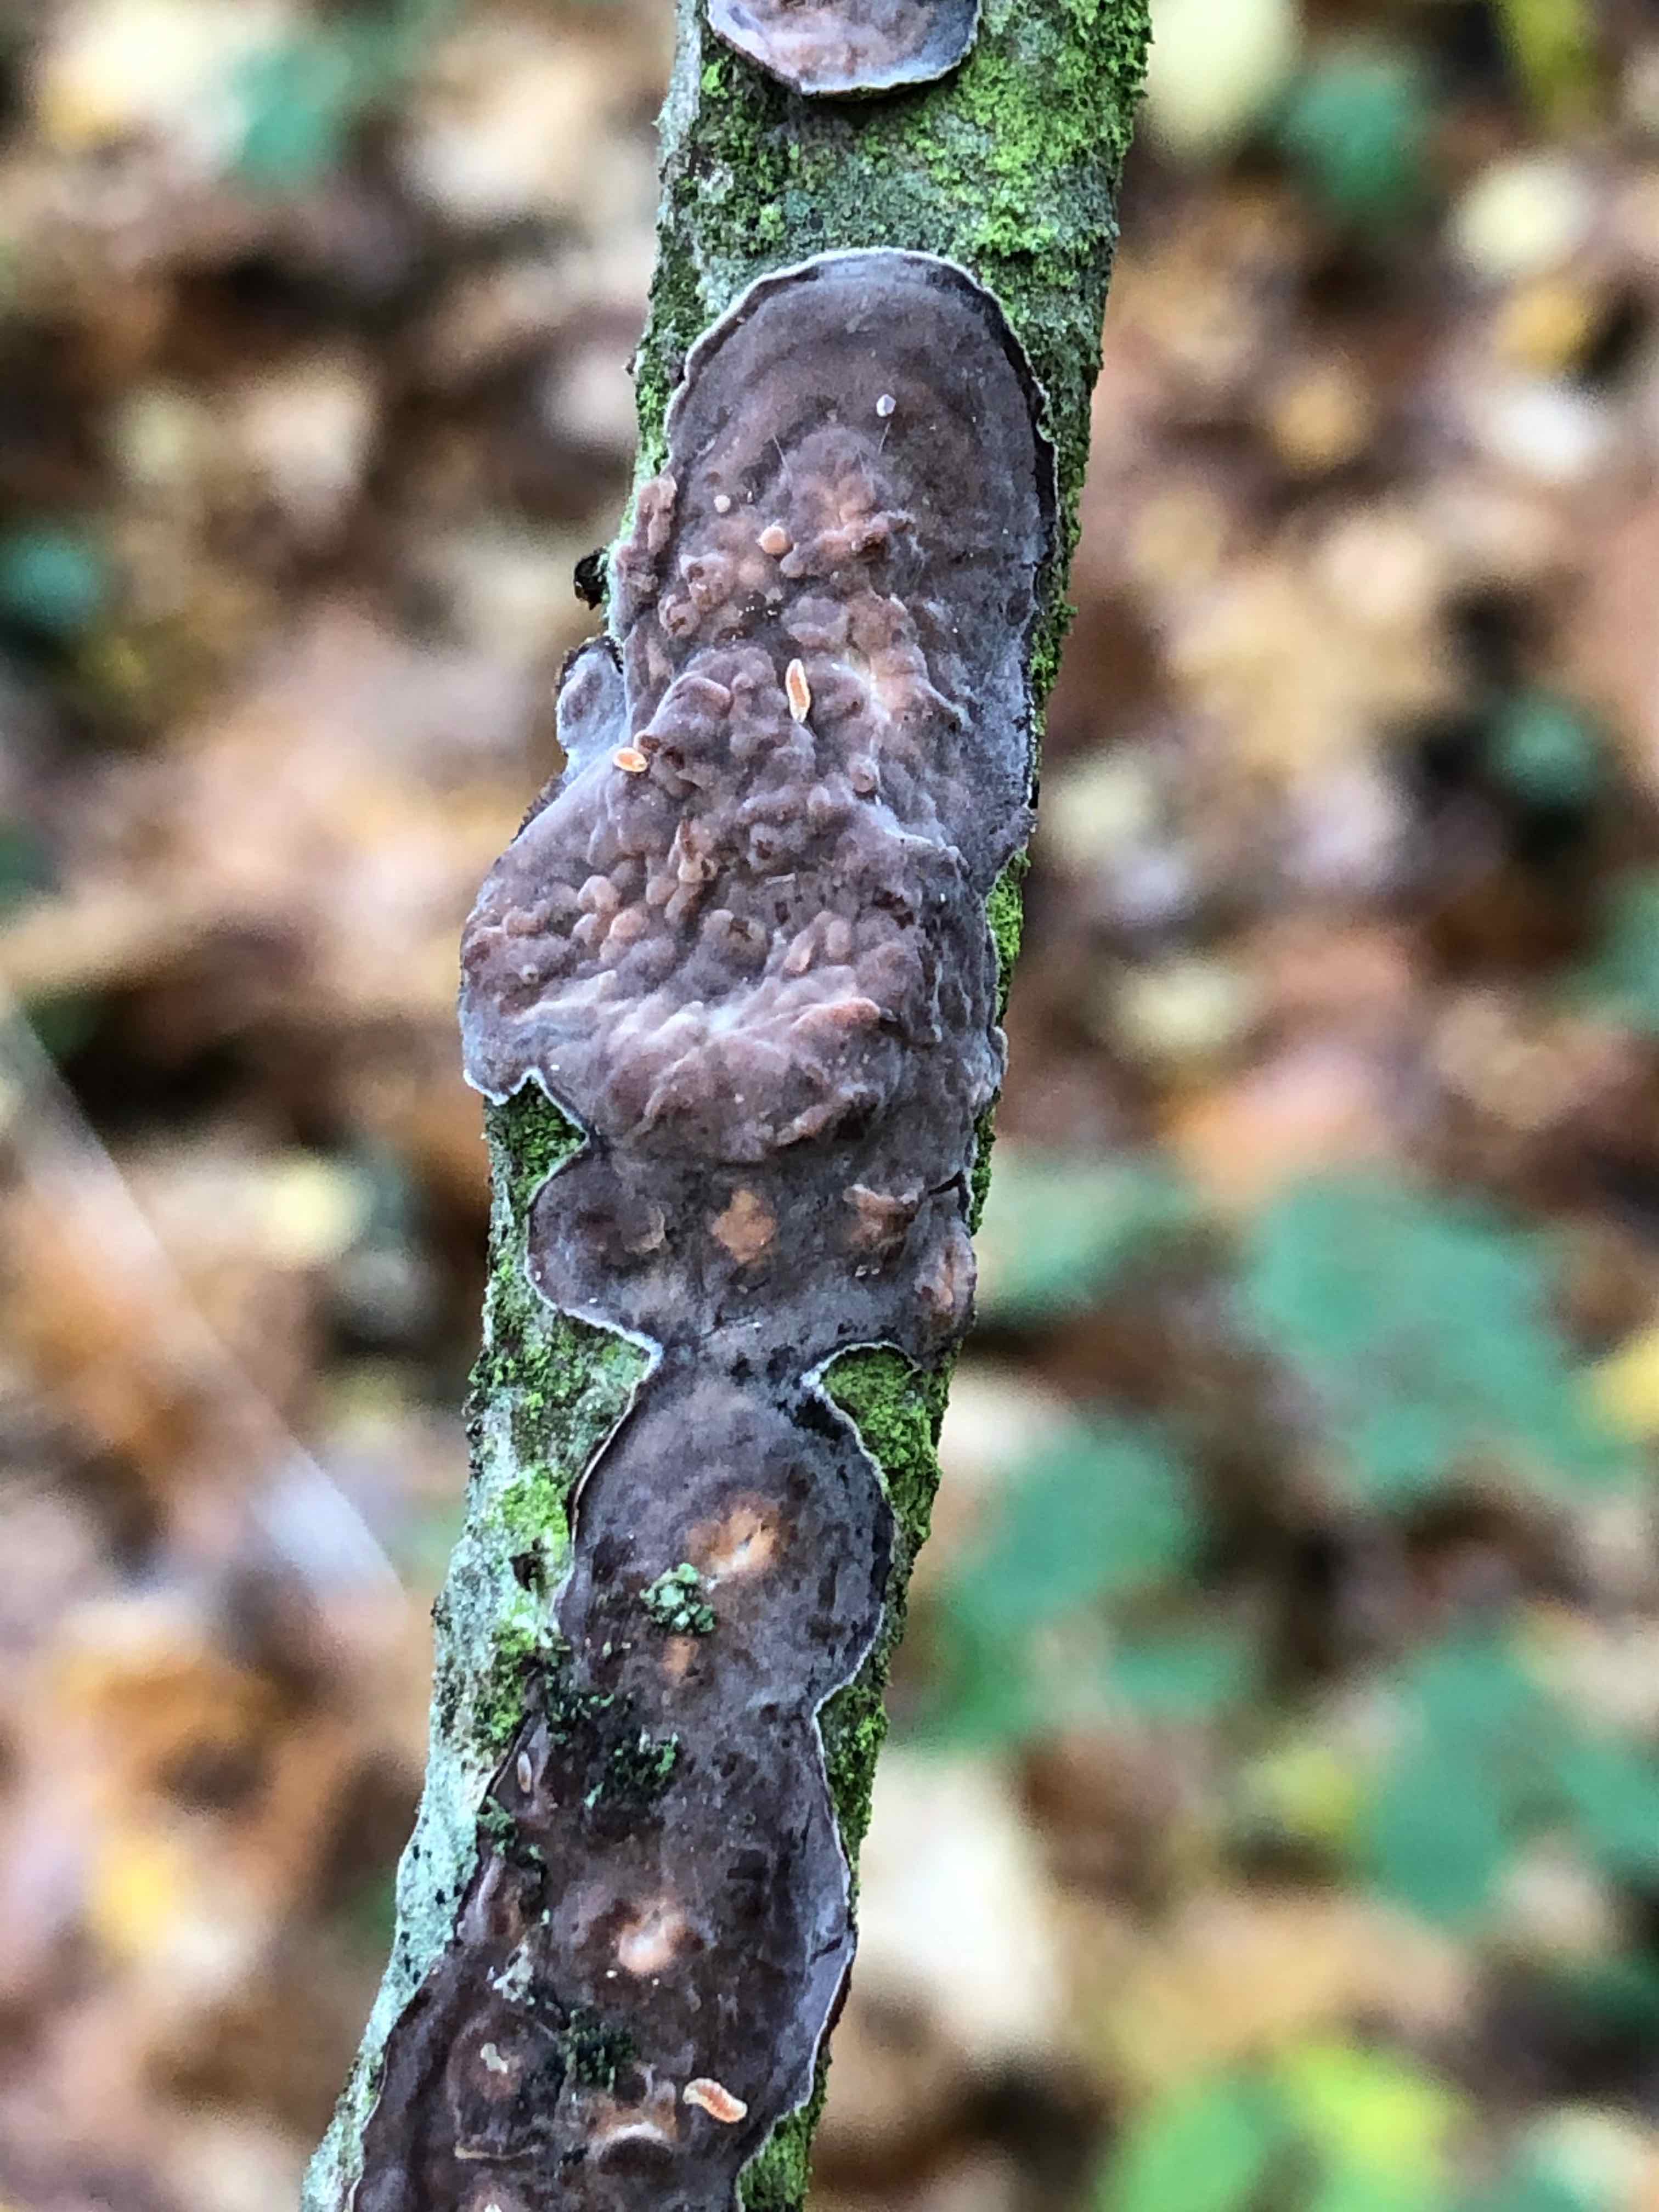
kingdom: Fungi
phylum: Basidiomycota
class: Agaricomycetes
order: Russulales
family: Peniophoraceae
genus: Peniophora
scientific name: Peniophora quercina
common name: ege-voksskind
